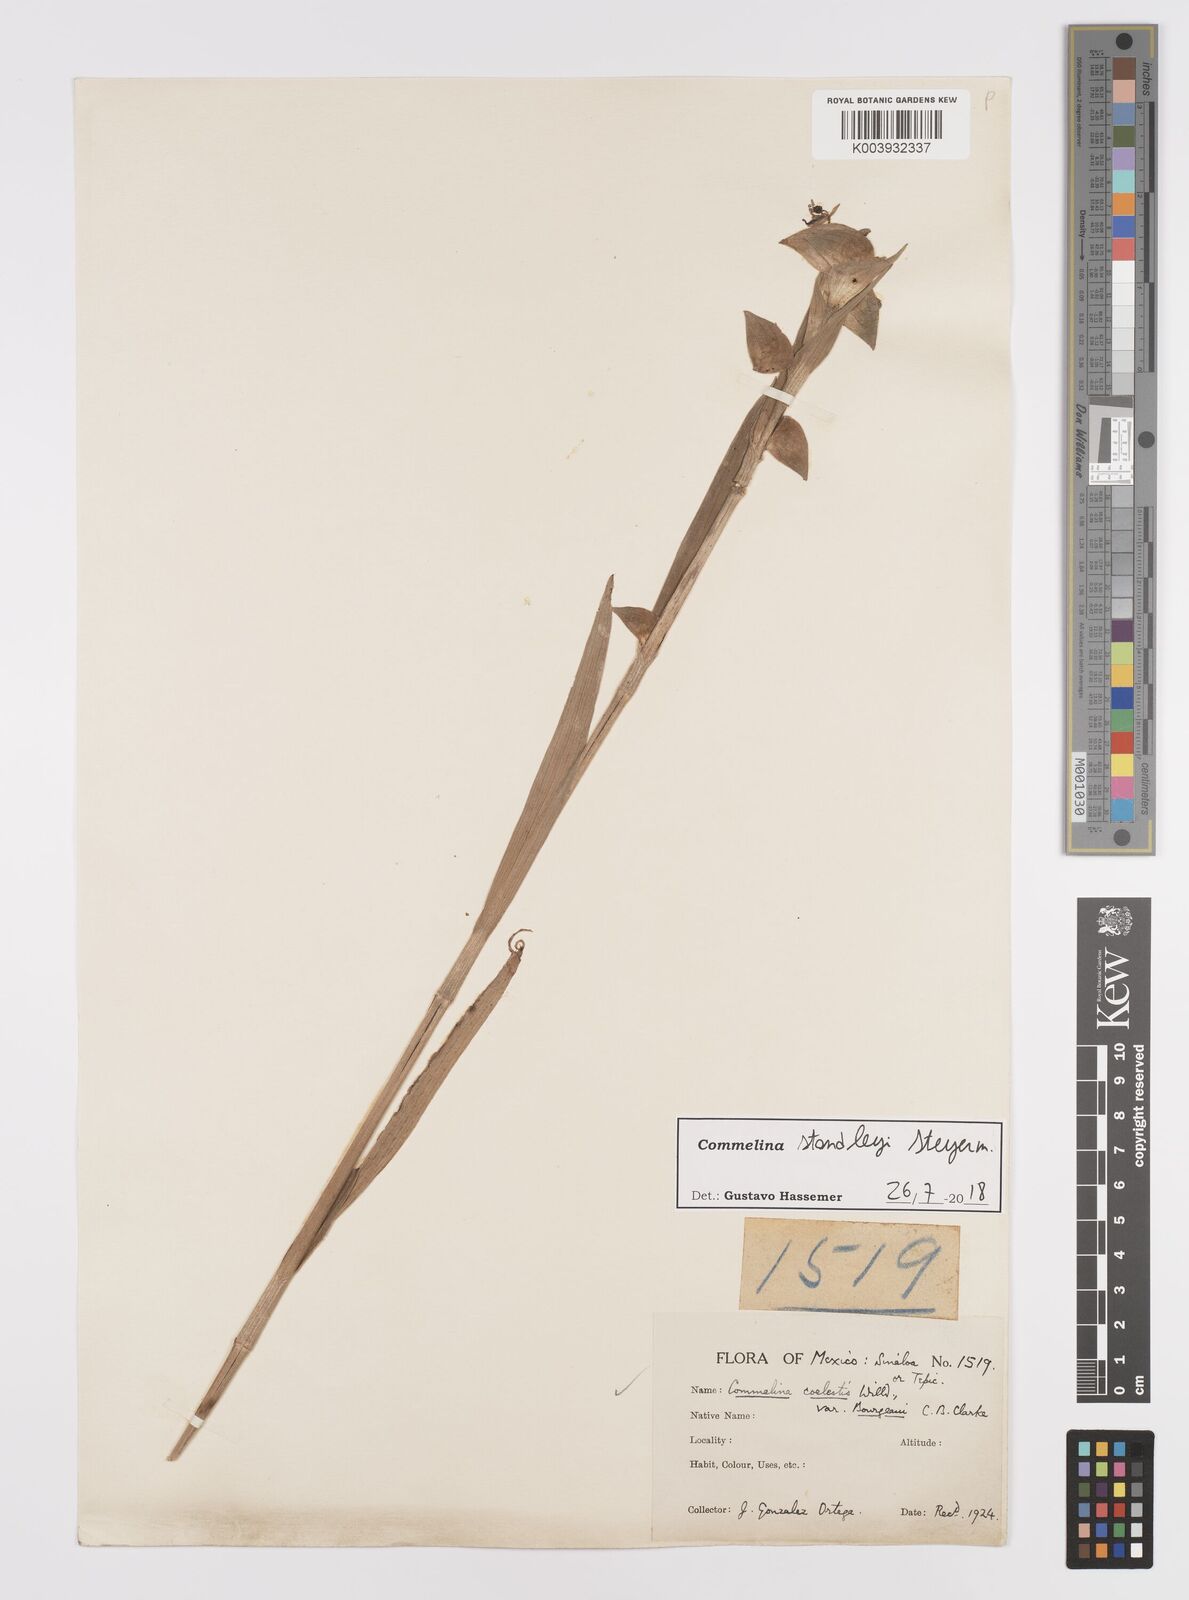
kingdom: Plantae
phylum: Tracheophyta
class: Liliopsida
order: Commelinales
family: Commelinaceae
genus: Commelina
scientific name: Commelina standleyi
